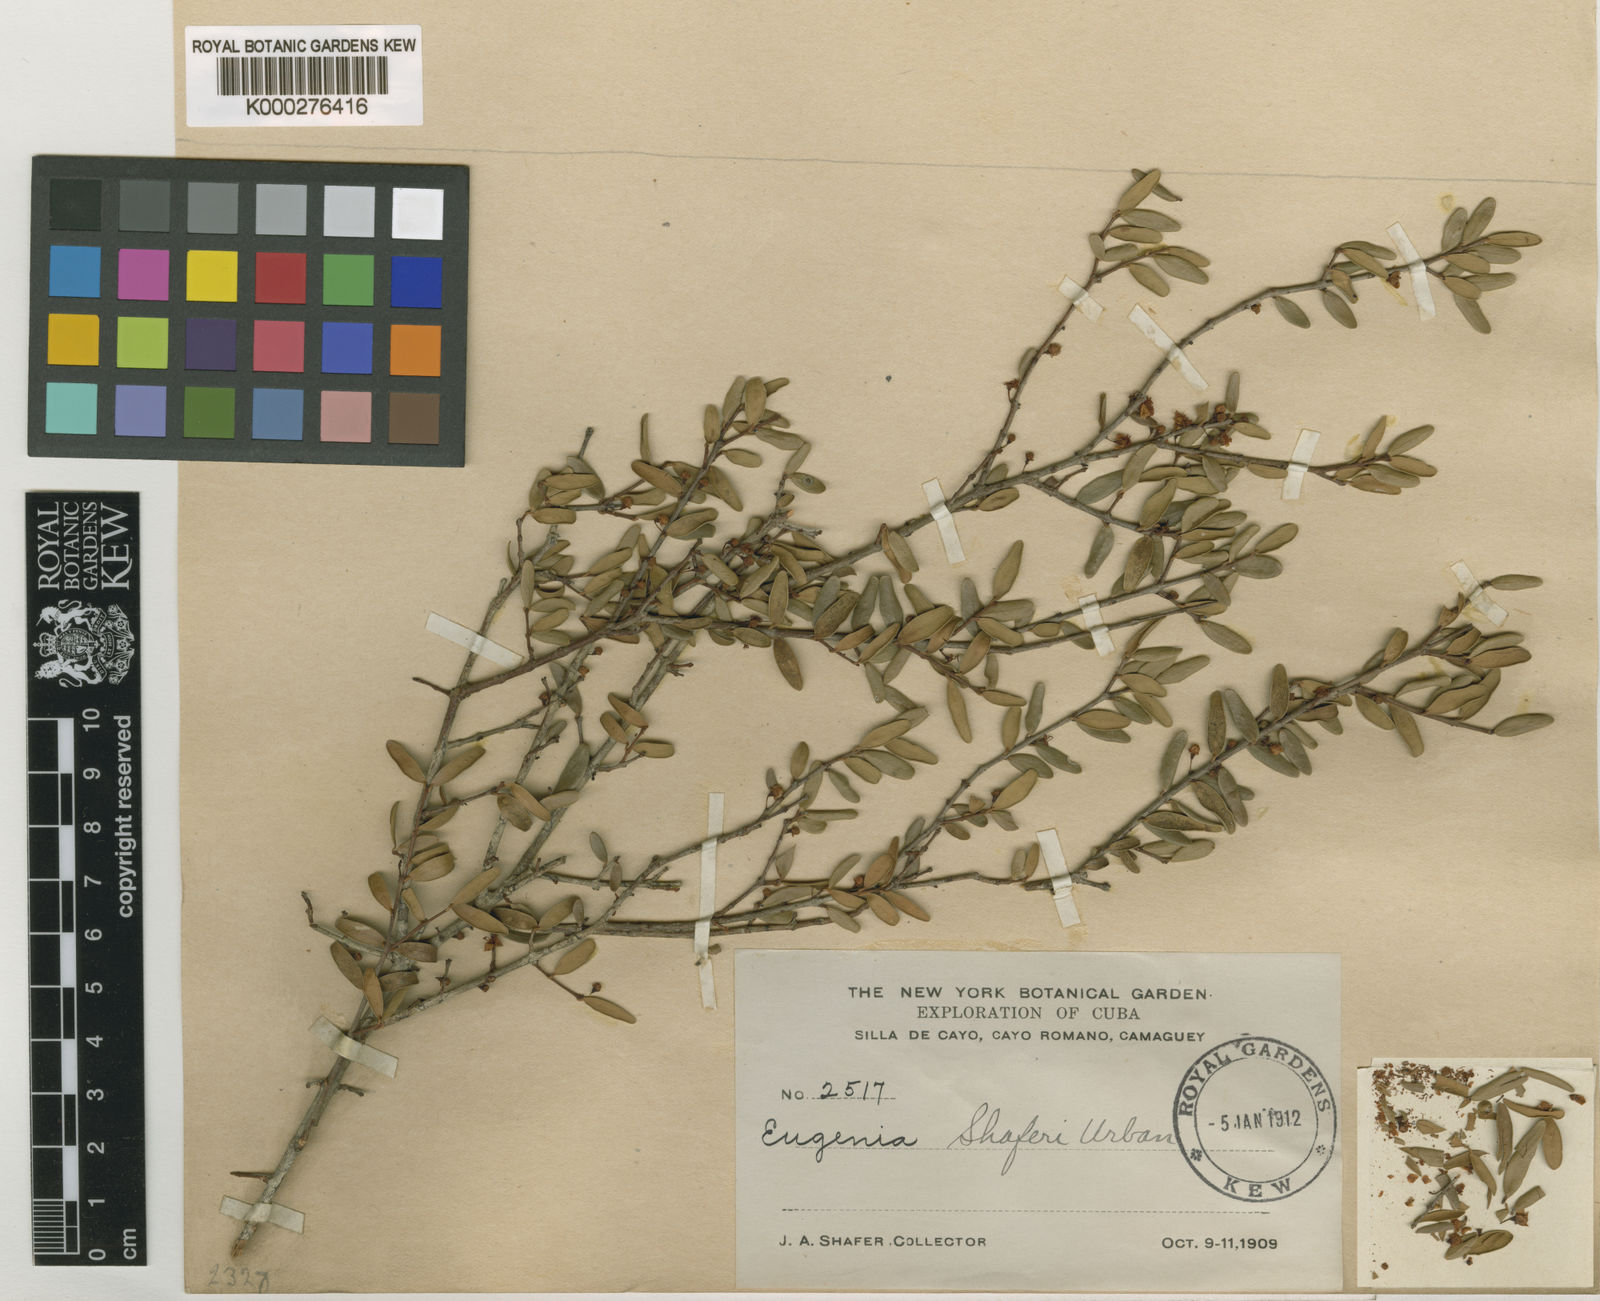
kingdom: Plantae
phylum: Tracheophyta
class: Magnoliopsida
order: Myrtales
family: Myrtaceae
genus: Eugenia
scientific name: Eugenia shaferi
